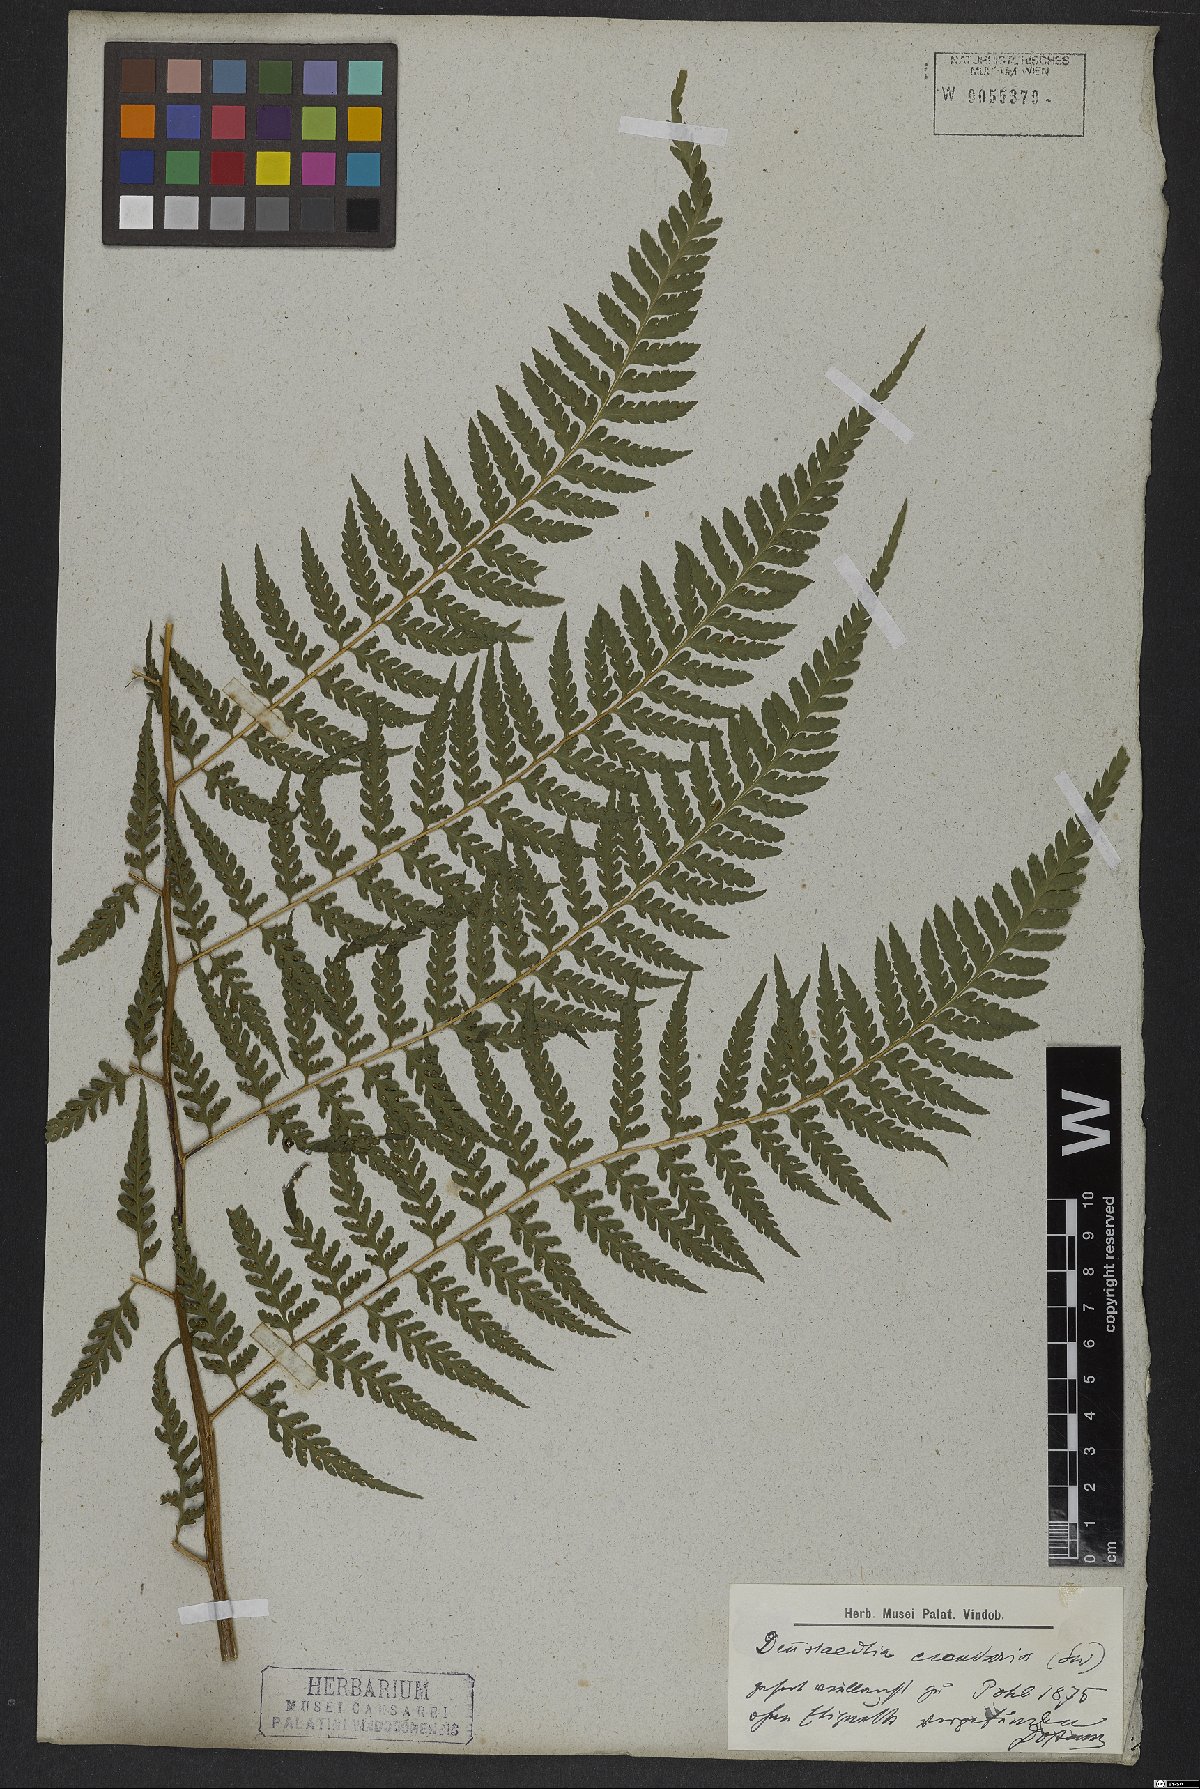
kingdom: Plantae
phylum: Tracheophyta
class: Polypodiopsida
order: Polypodiales
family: Dennstaedtiaceae
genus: Dennstaedtia
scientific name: Dennstaedtia cicutaria
